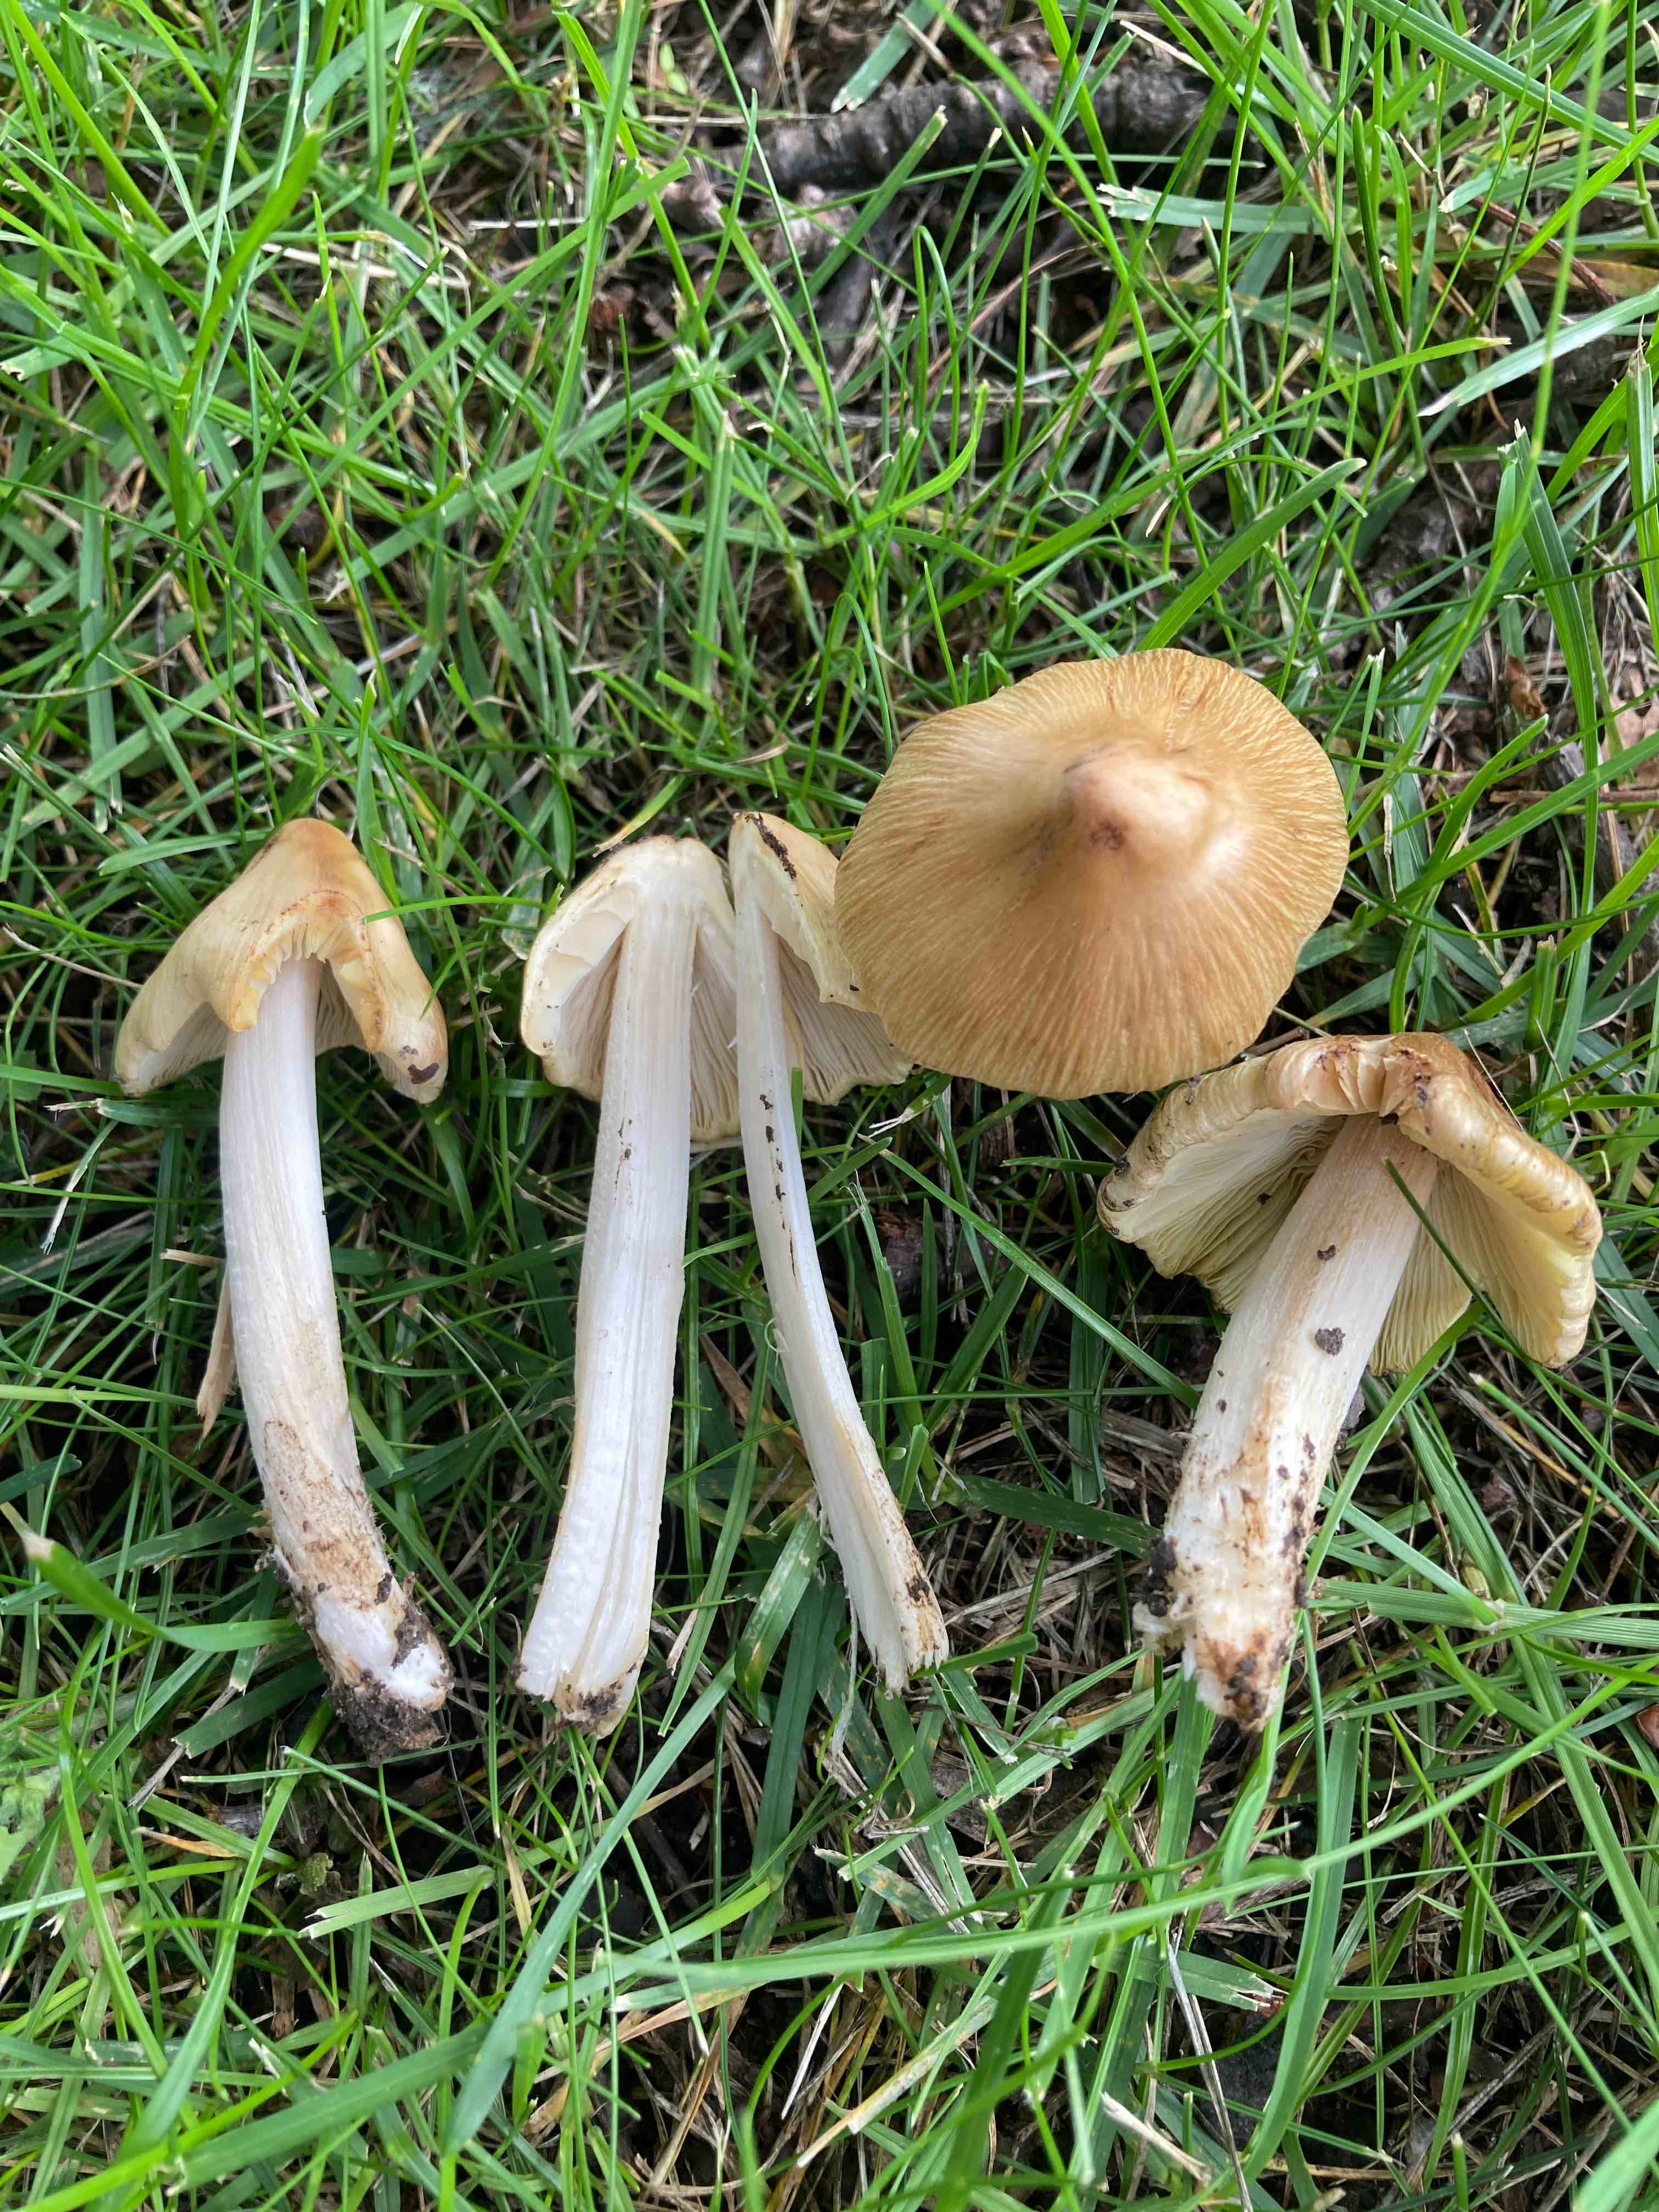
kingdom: Fungi
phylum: Basidiomycota
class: Agaricomycetes
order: Agaricales
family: Inocybaceae
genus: Pseudosperma
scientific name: Pseudosperma
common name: trævlhat
